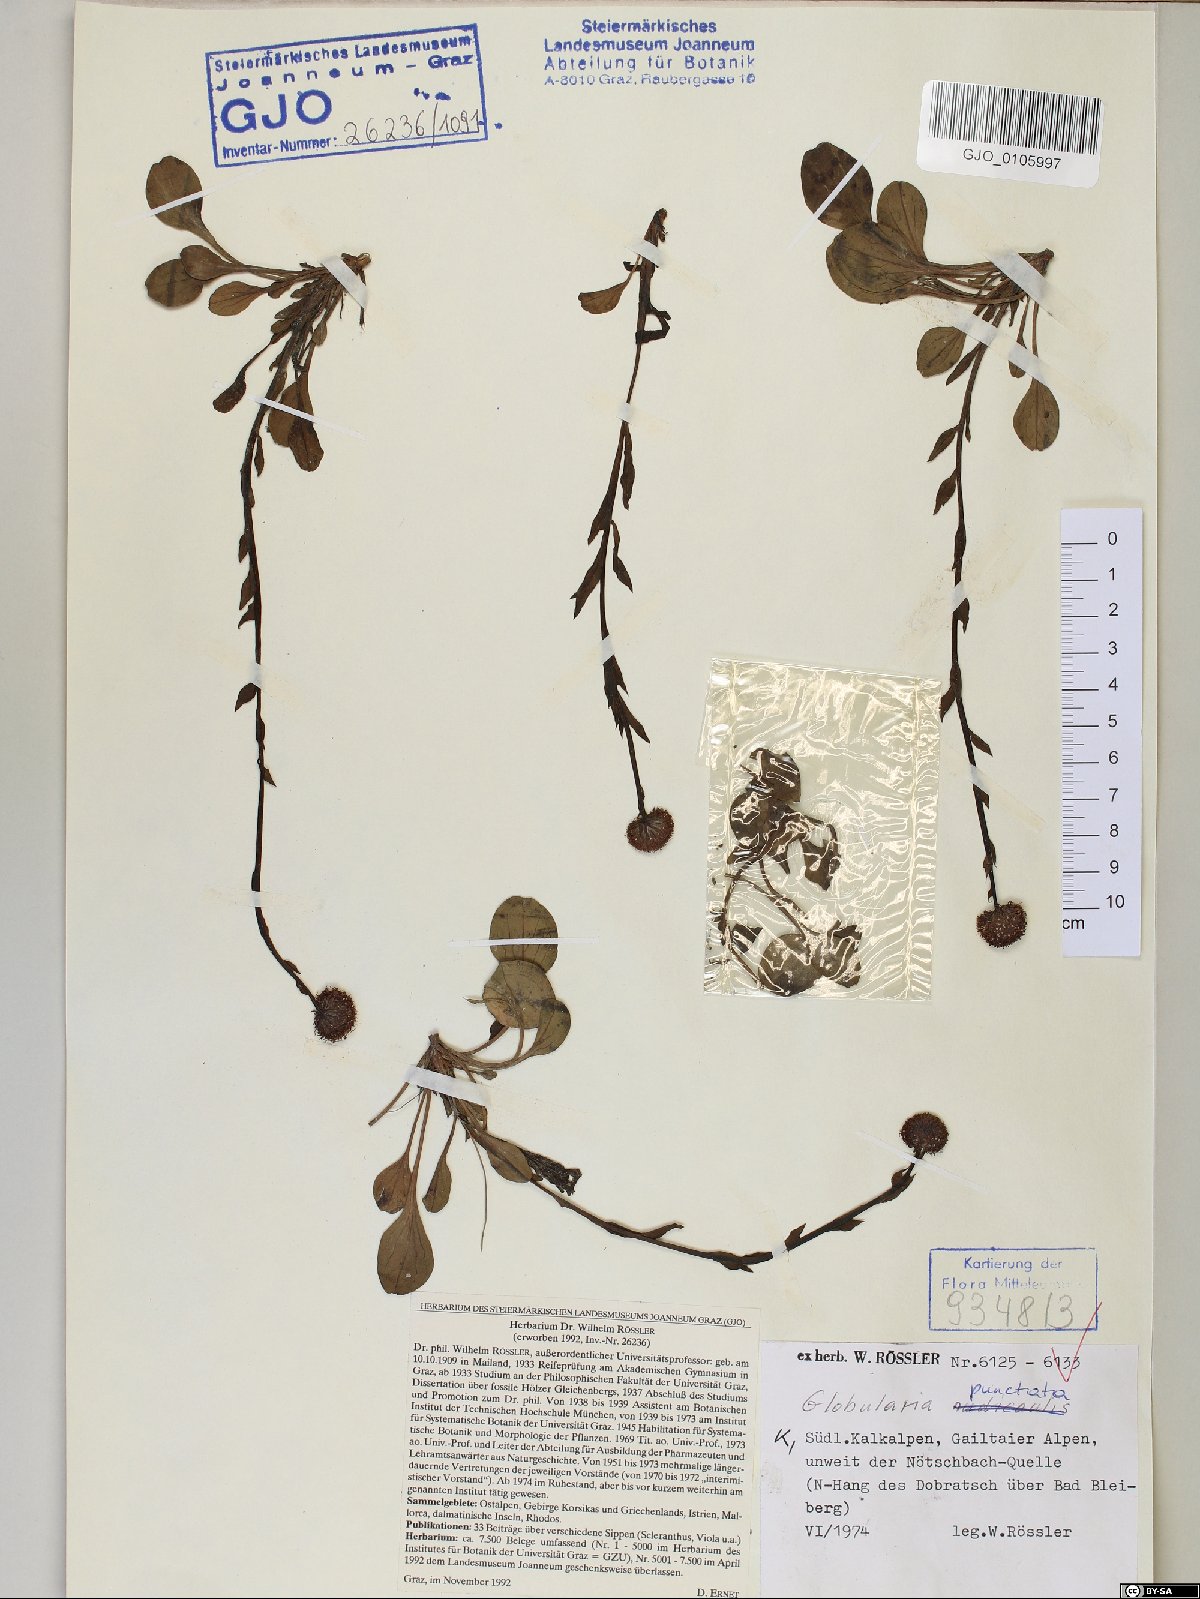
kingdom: Plantae
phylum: Tracheophyta
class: Magnoliopsida
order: Lamiales
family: Plantaginaceae
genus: Globularia
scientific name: Globularia bisnagarica
